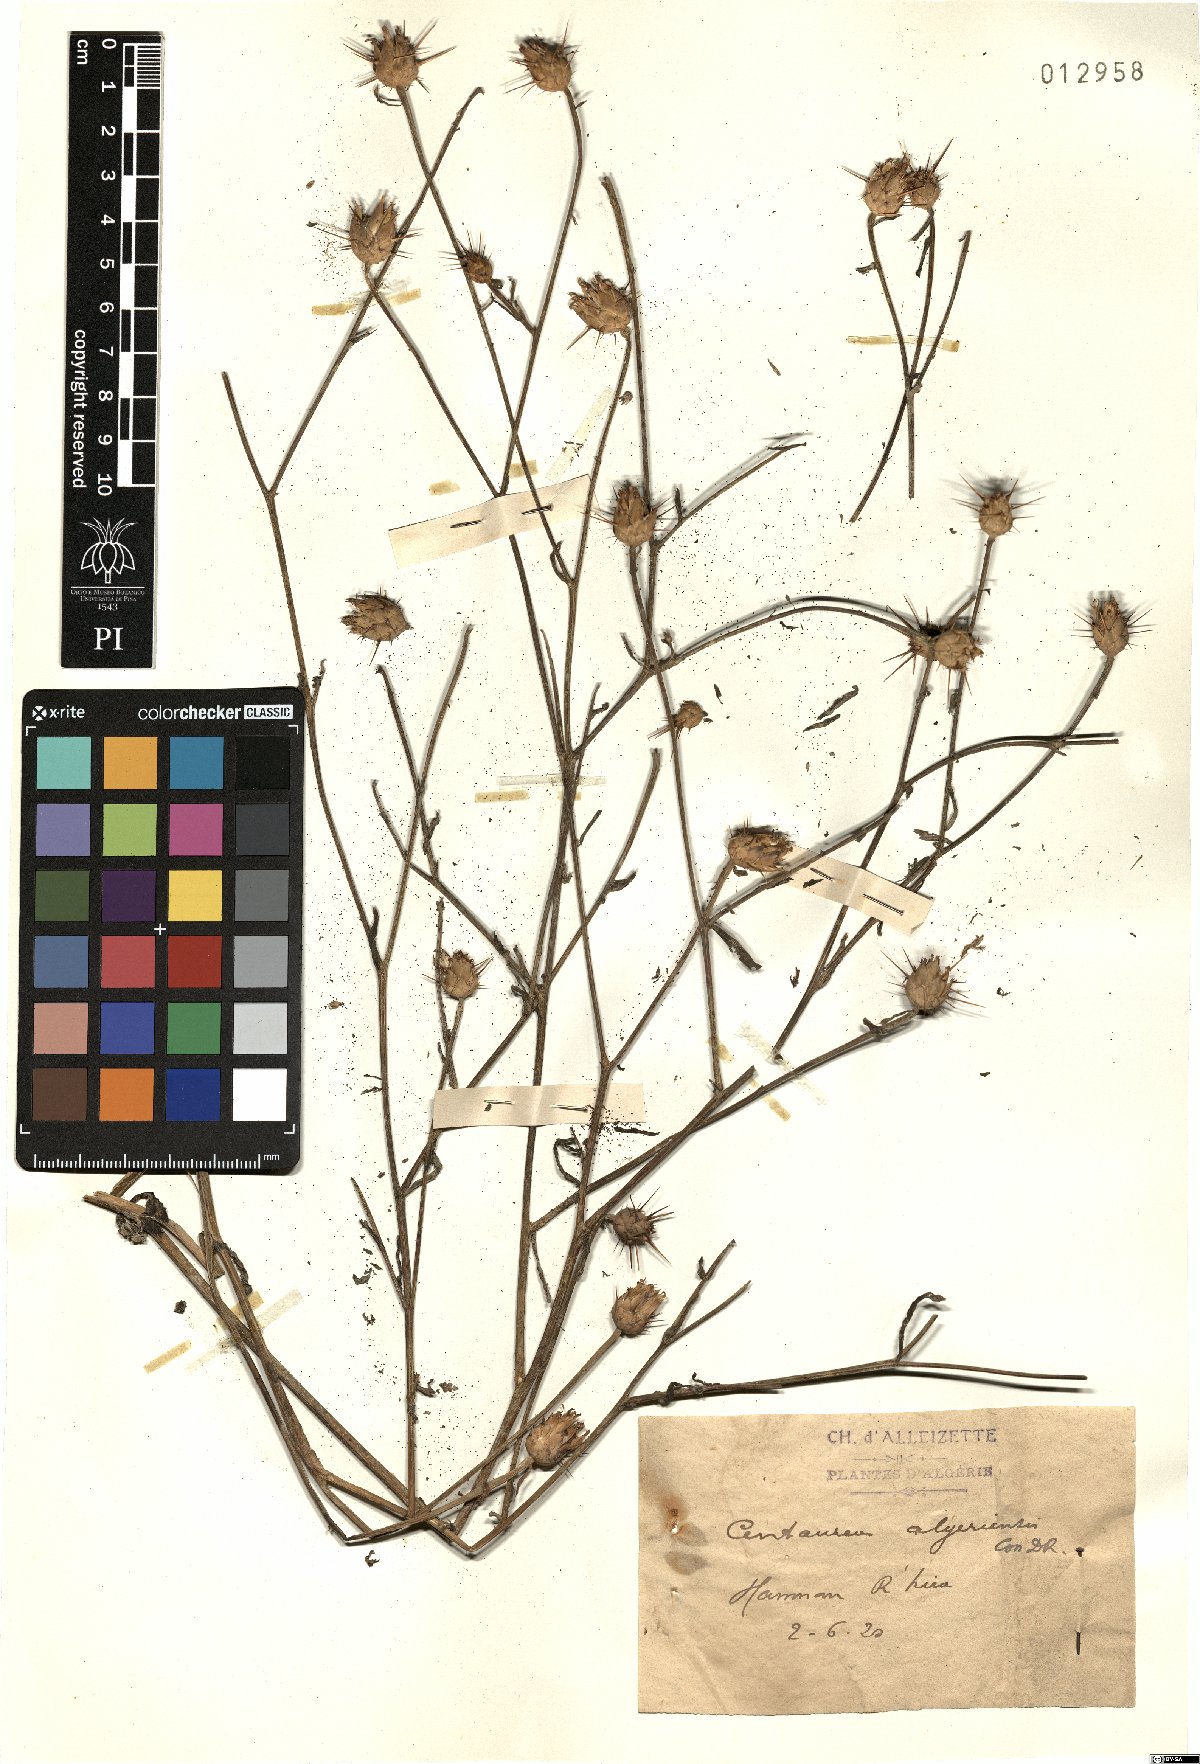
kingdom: Plantae
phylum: Tracheophyta
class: Magnoliopsida
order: Asterales
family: Asteraceae
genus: Centaurea
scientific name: Centaurea diluta
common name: Lesser star-thistle
